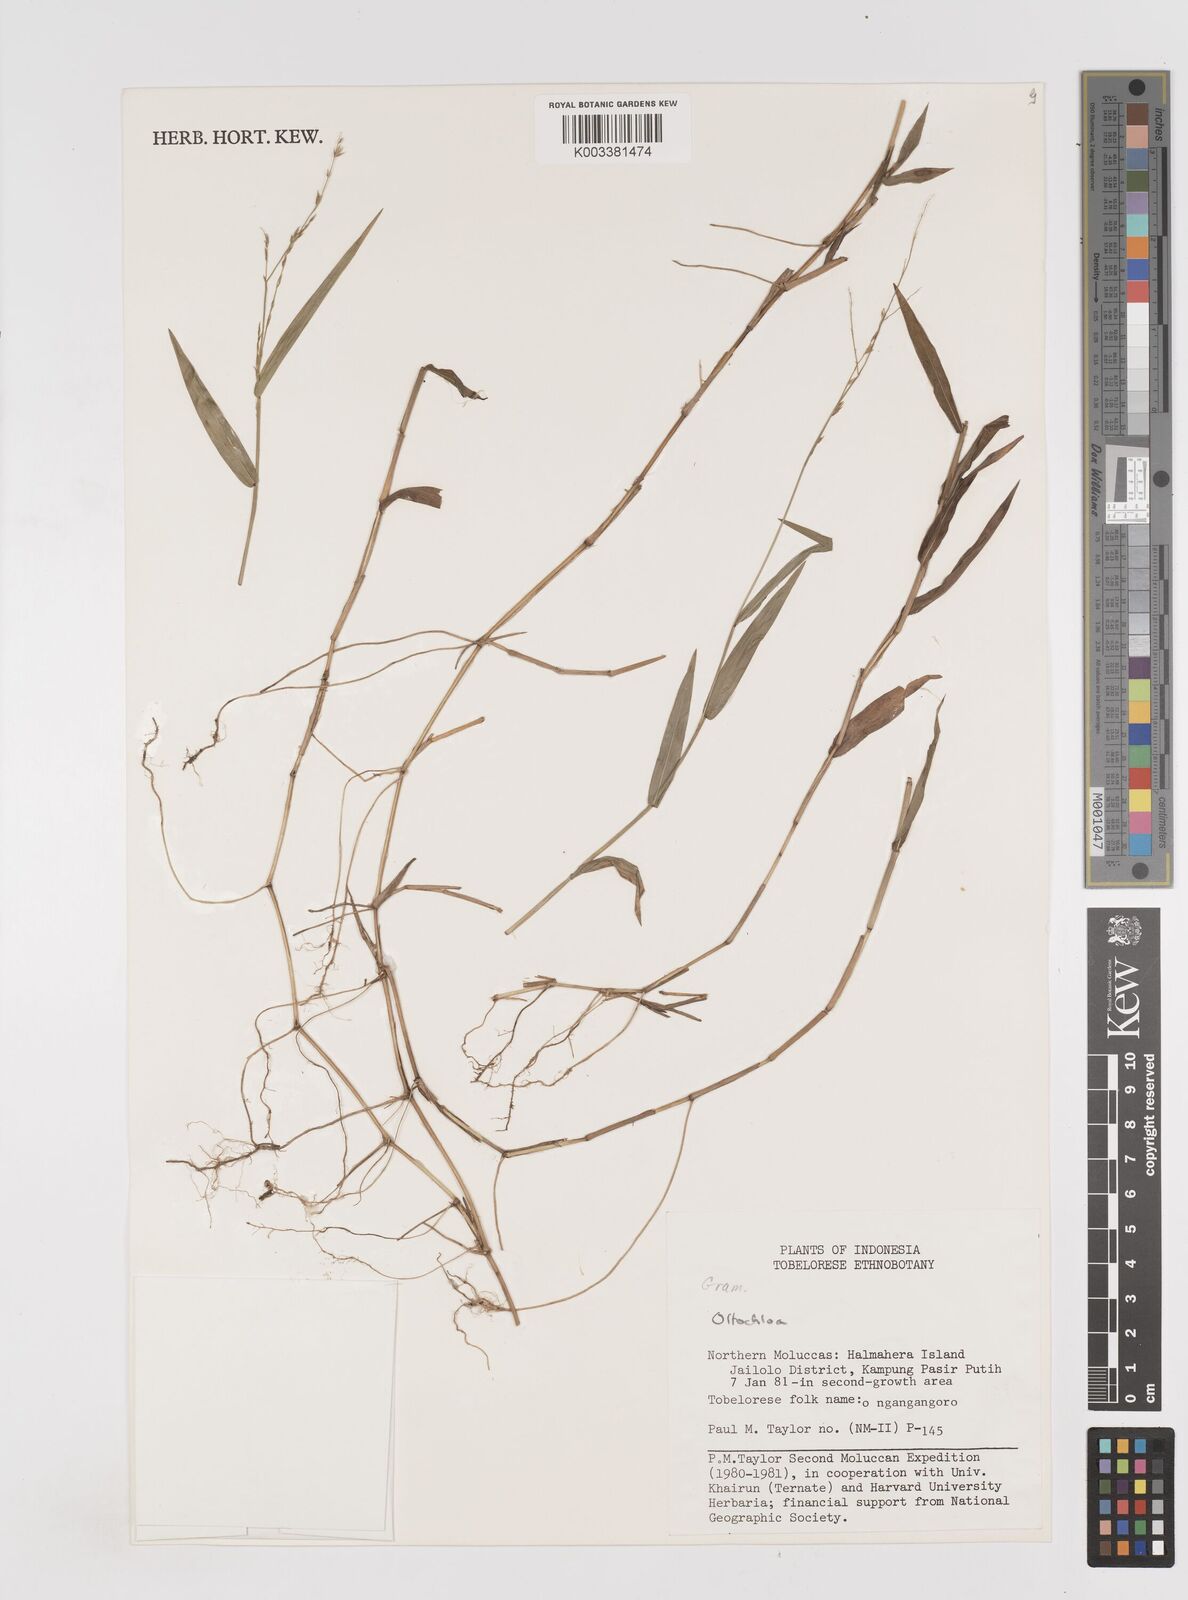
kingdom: Plantae
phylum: Tracheophyta
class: Liliopsida
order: Poales
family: Poaceae
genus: Ottochloa
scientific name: Ottochloa nodosa
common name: Slender-panic grass
